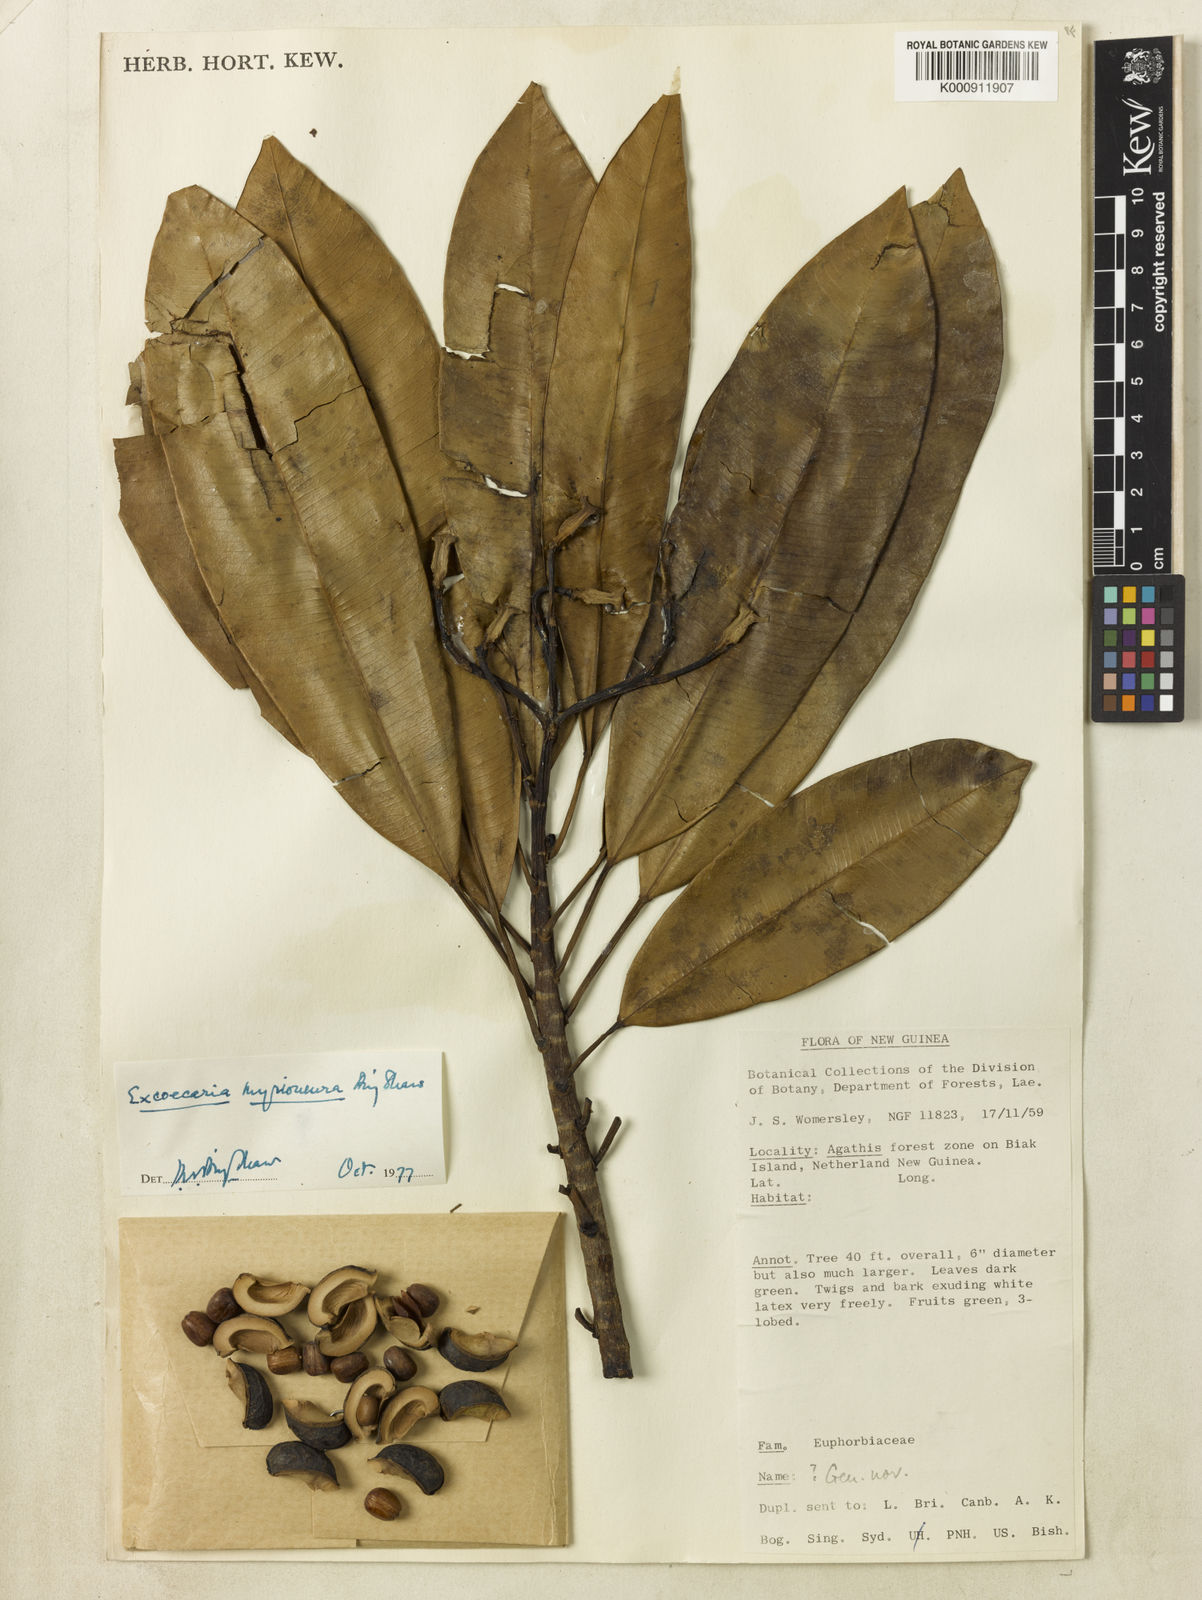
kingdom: Plantae
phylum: Tracheophyta
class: Magnoliopsida
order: Malpighiales
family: Euphorbiaceae
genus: Excoecaria
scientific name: Excoecaria myrioneura
